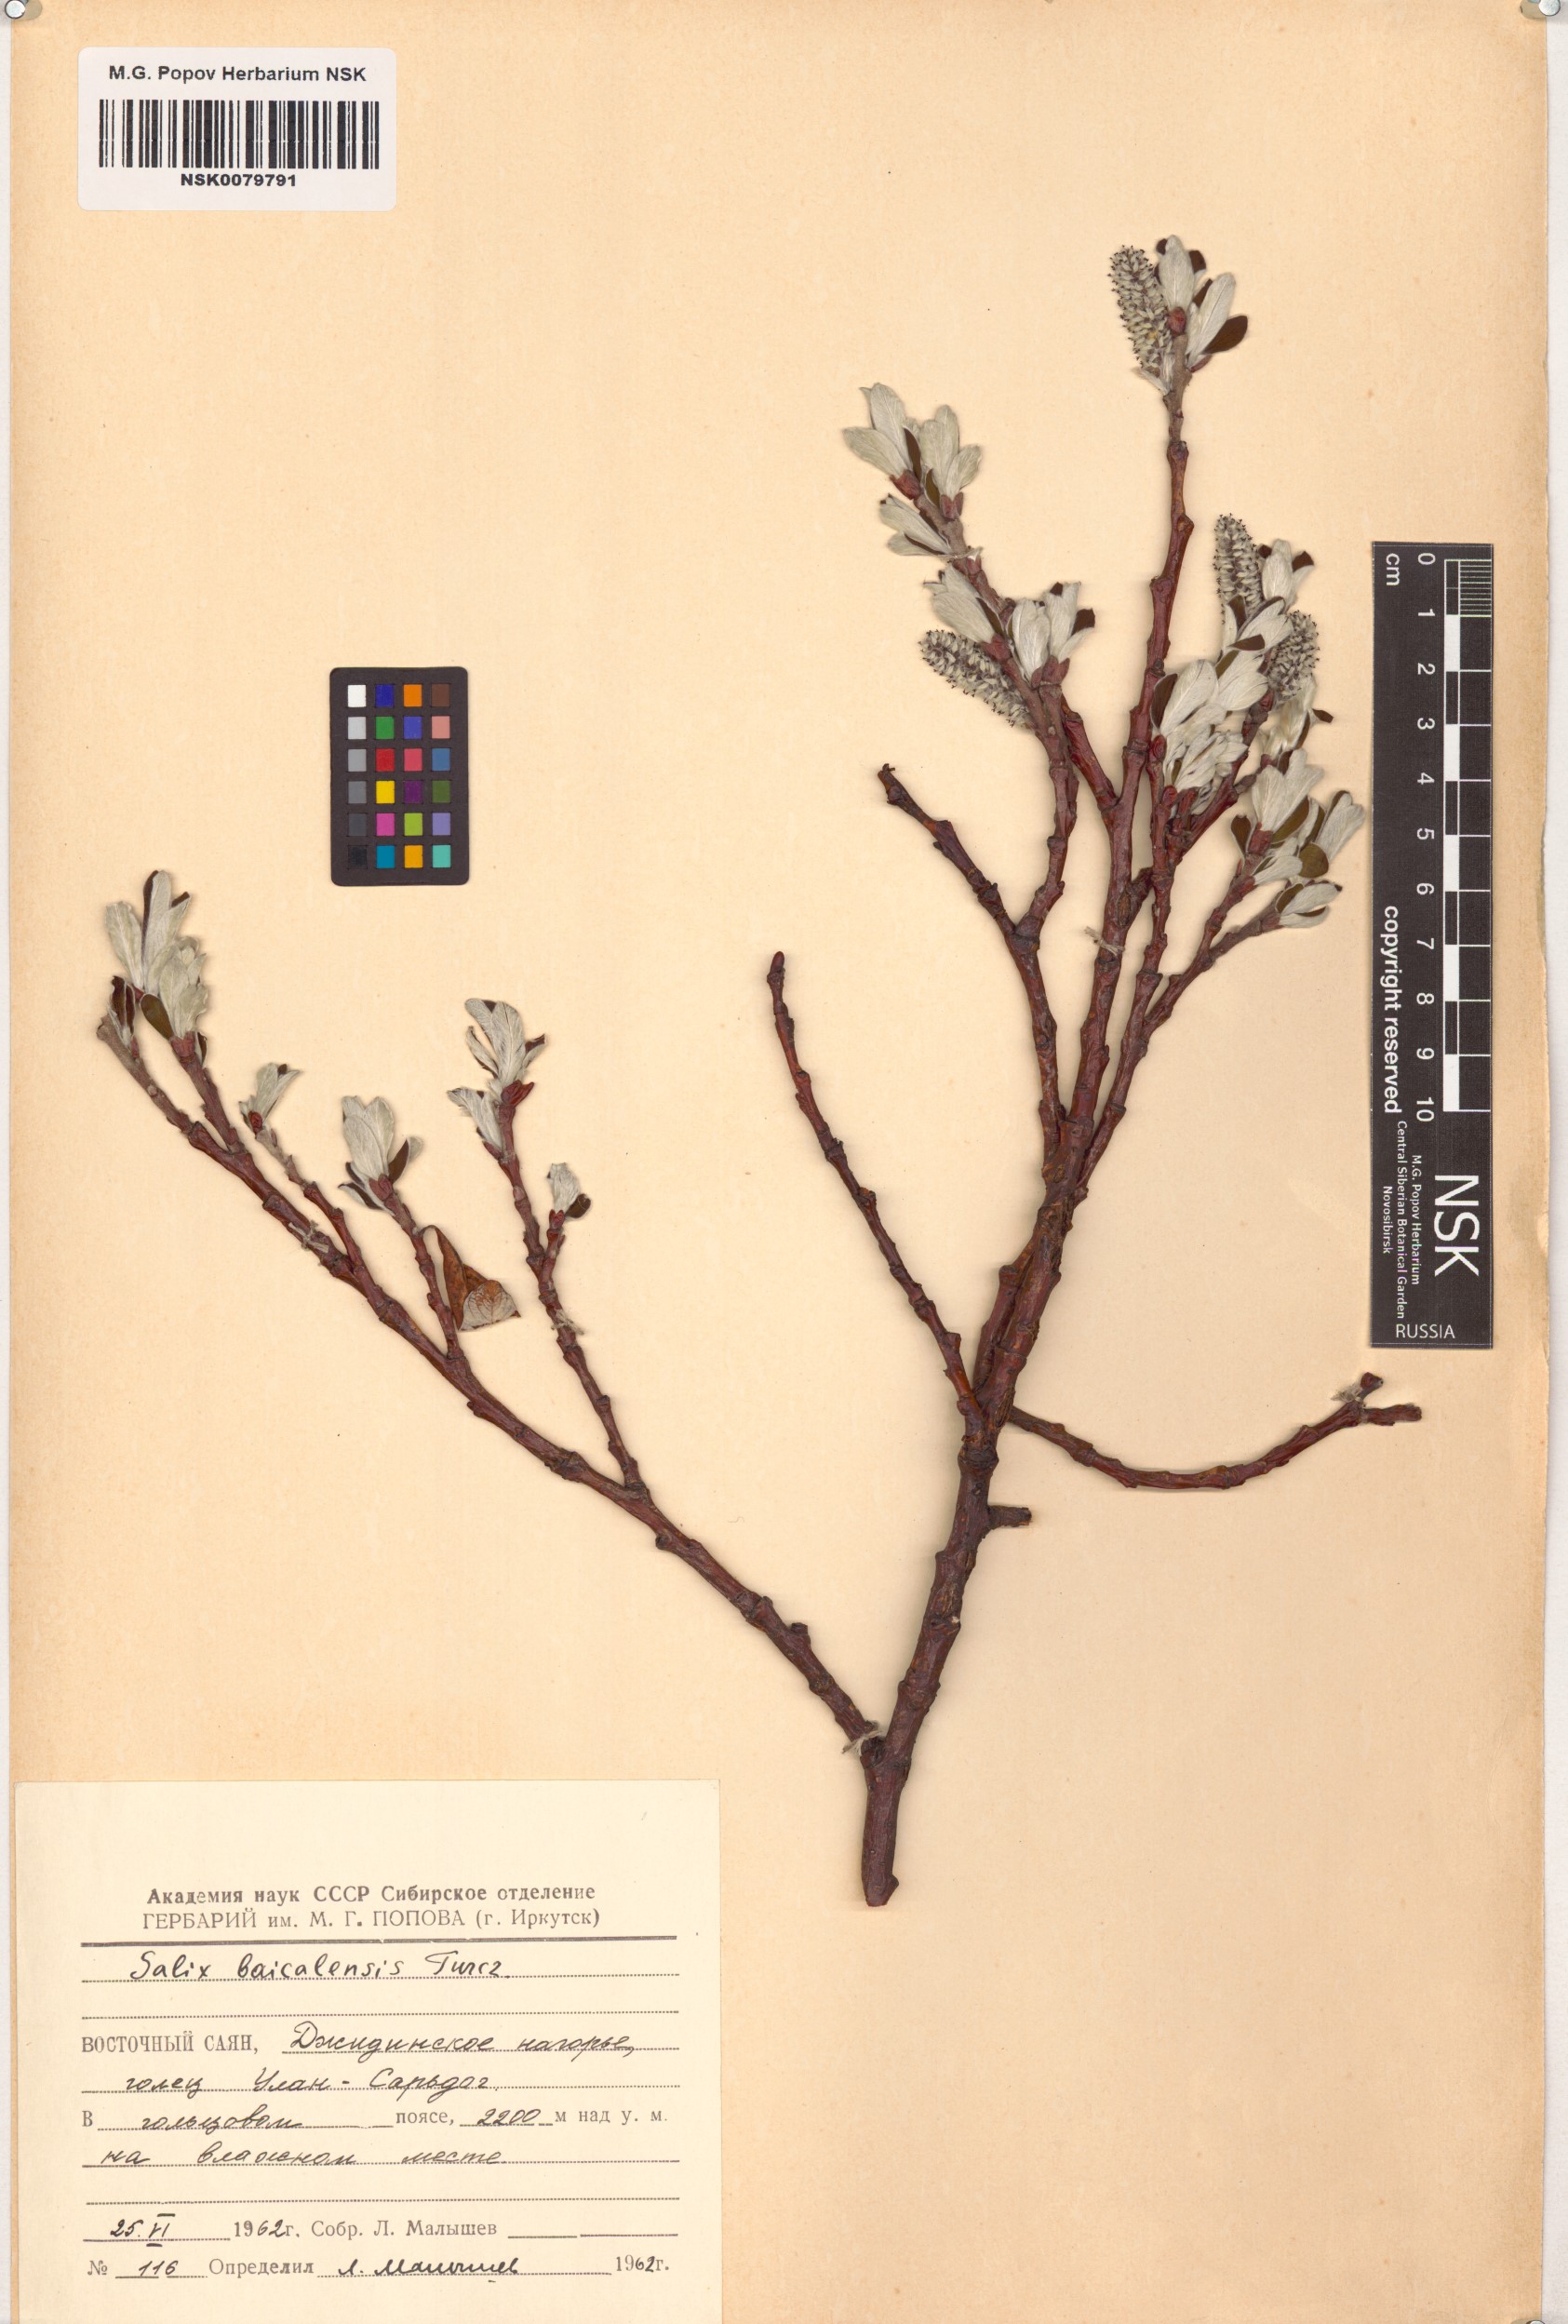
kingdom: Plantae
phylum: Tracheophyta
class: Magnoliopsida
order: Malpighiales
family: Salicaceae
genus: Salix
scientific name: Salix krylovii
